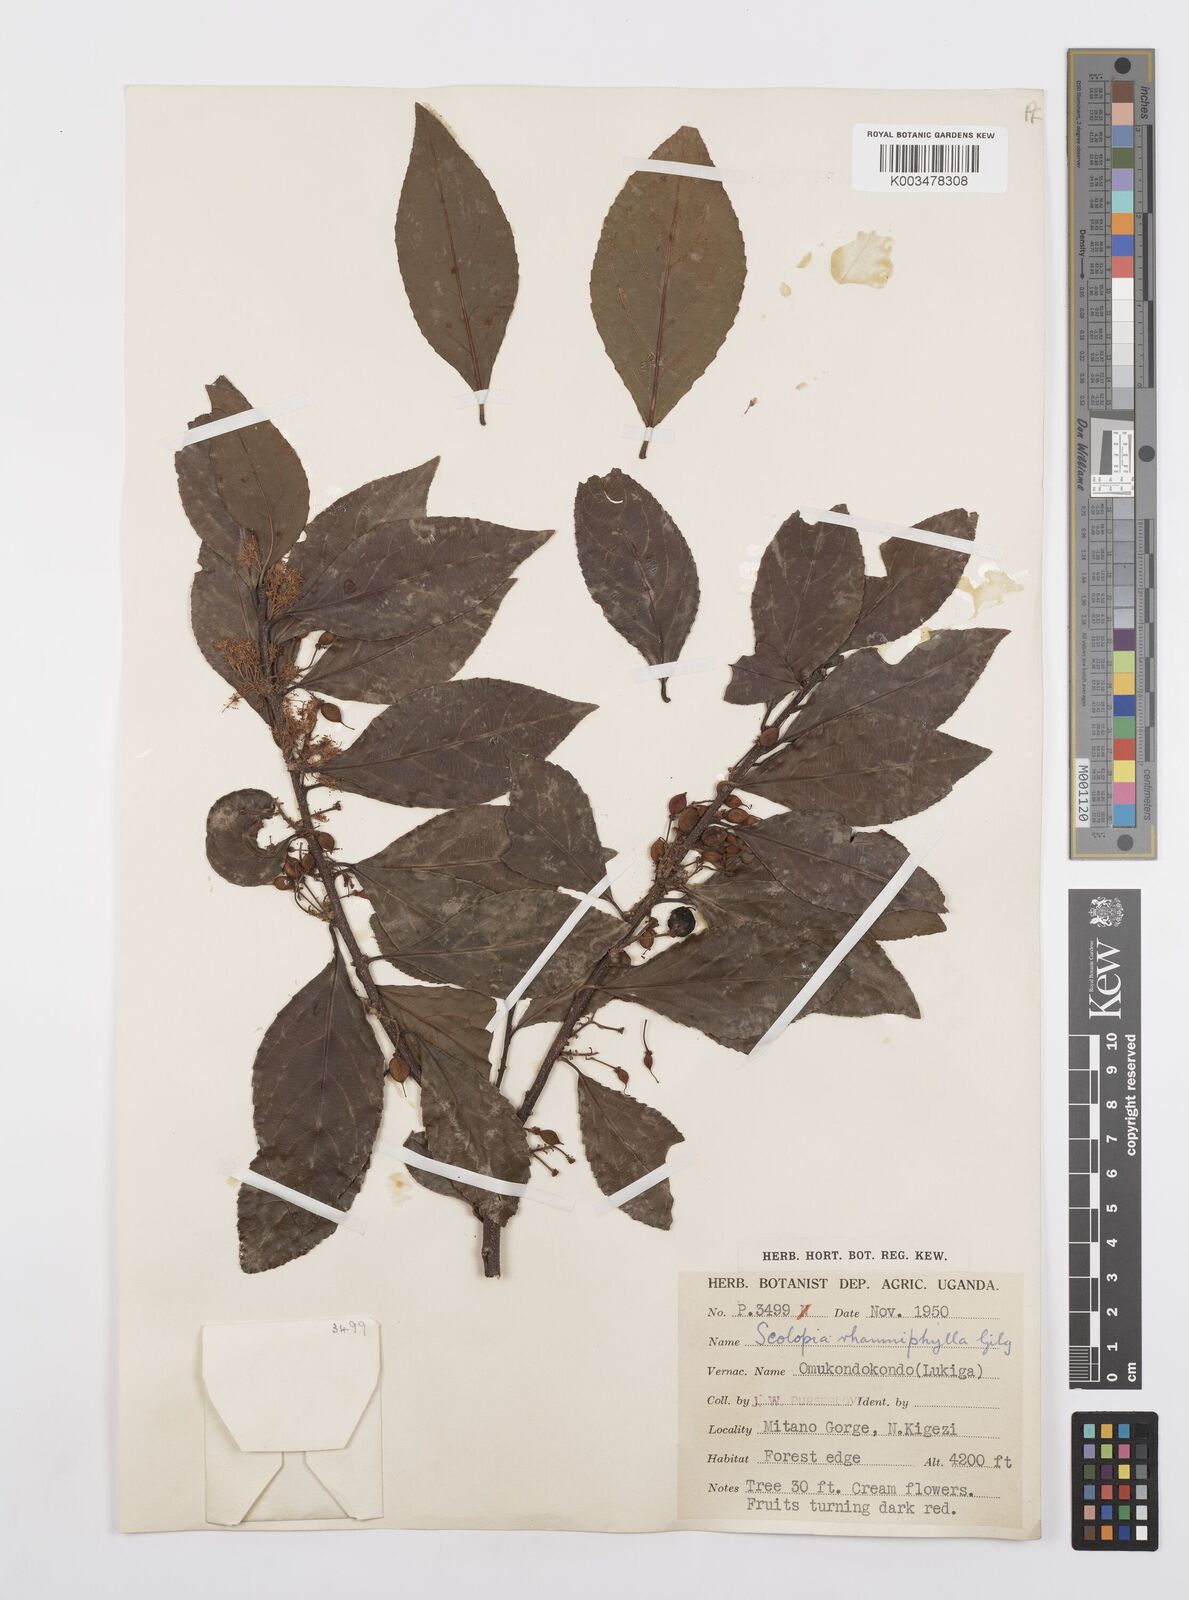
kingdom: Plantae
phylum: Tracheophyta
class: Magnoliopsida
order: Malpighiales
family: Salicaceae
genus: Scolopia
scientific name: Scolopia rhamniphylla
